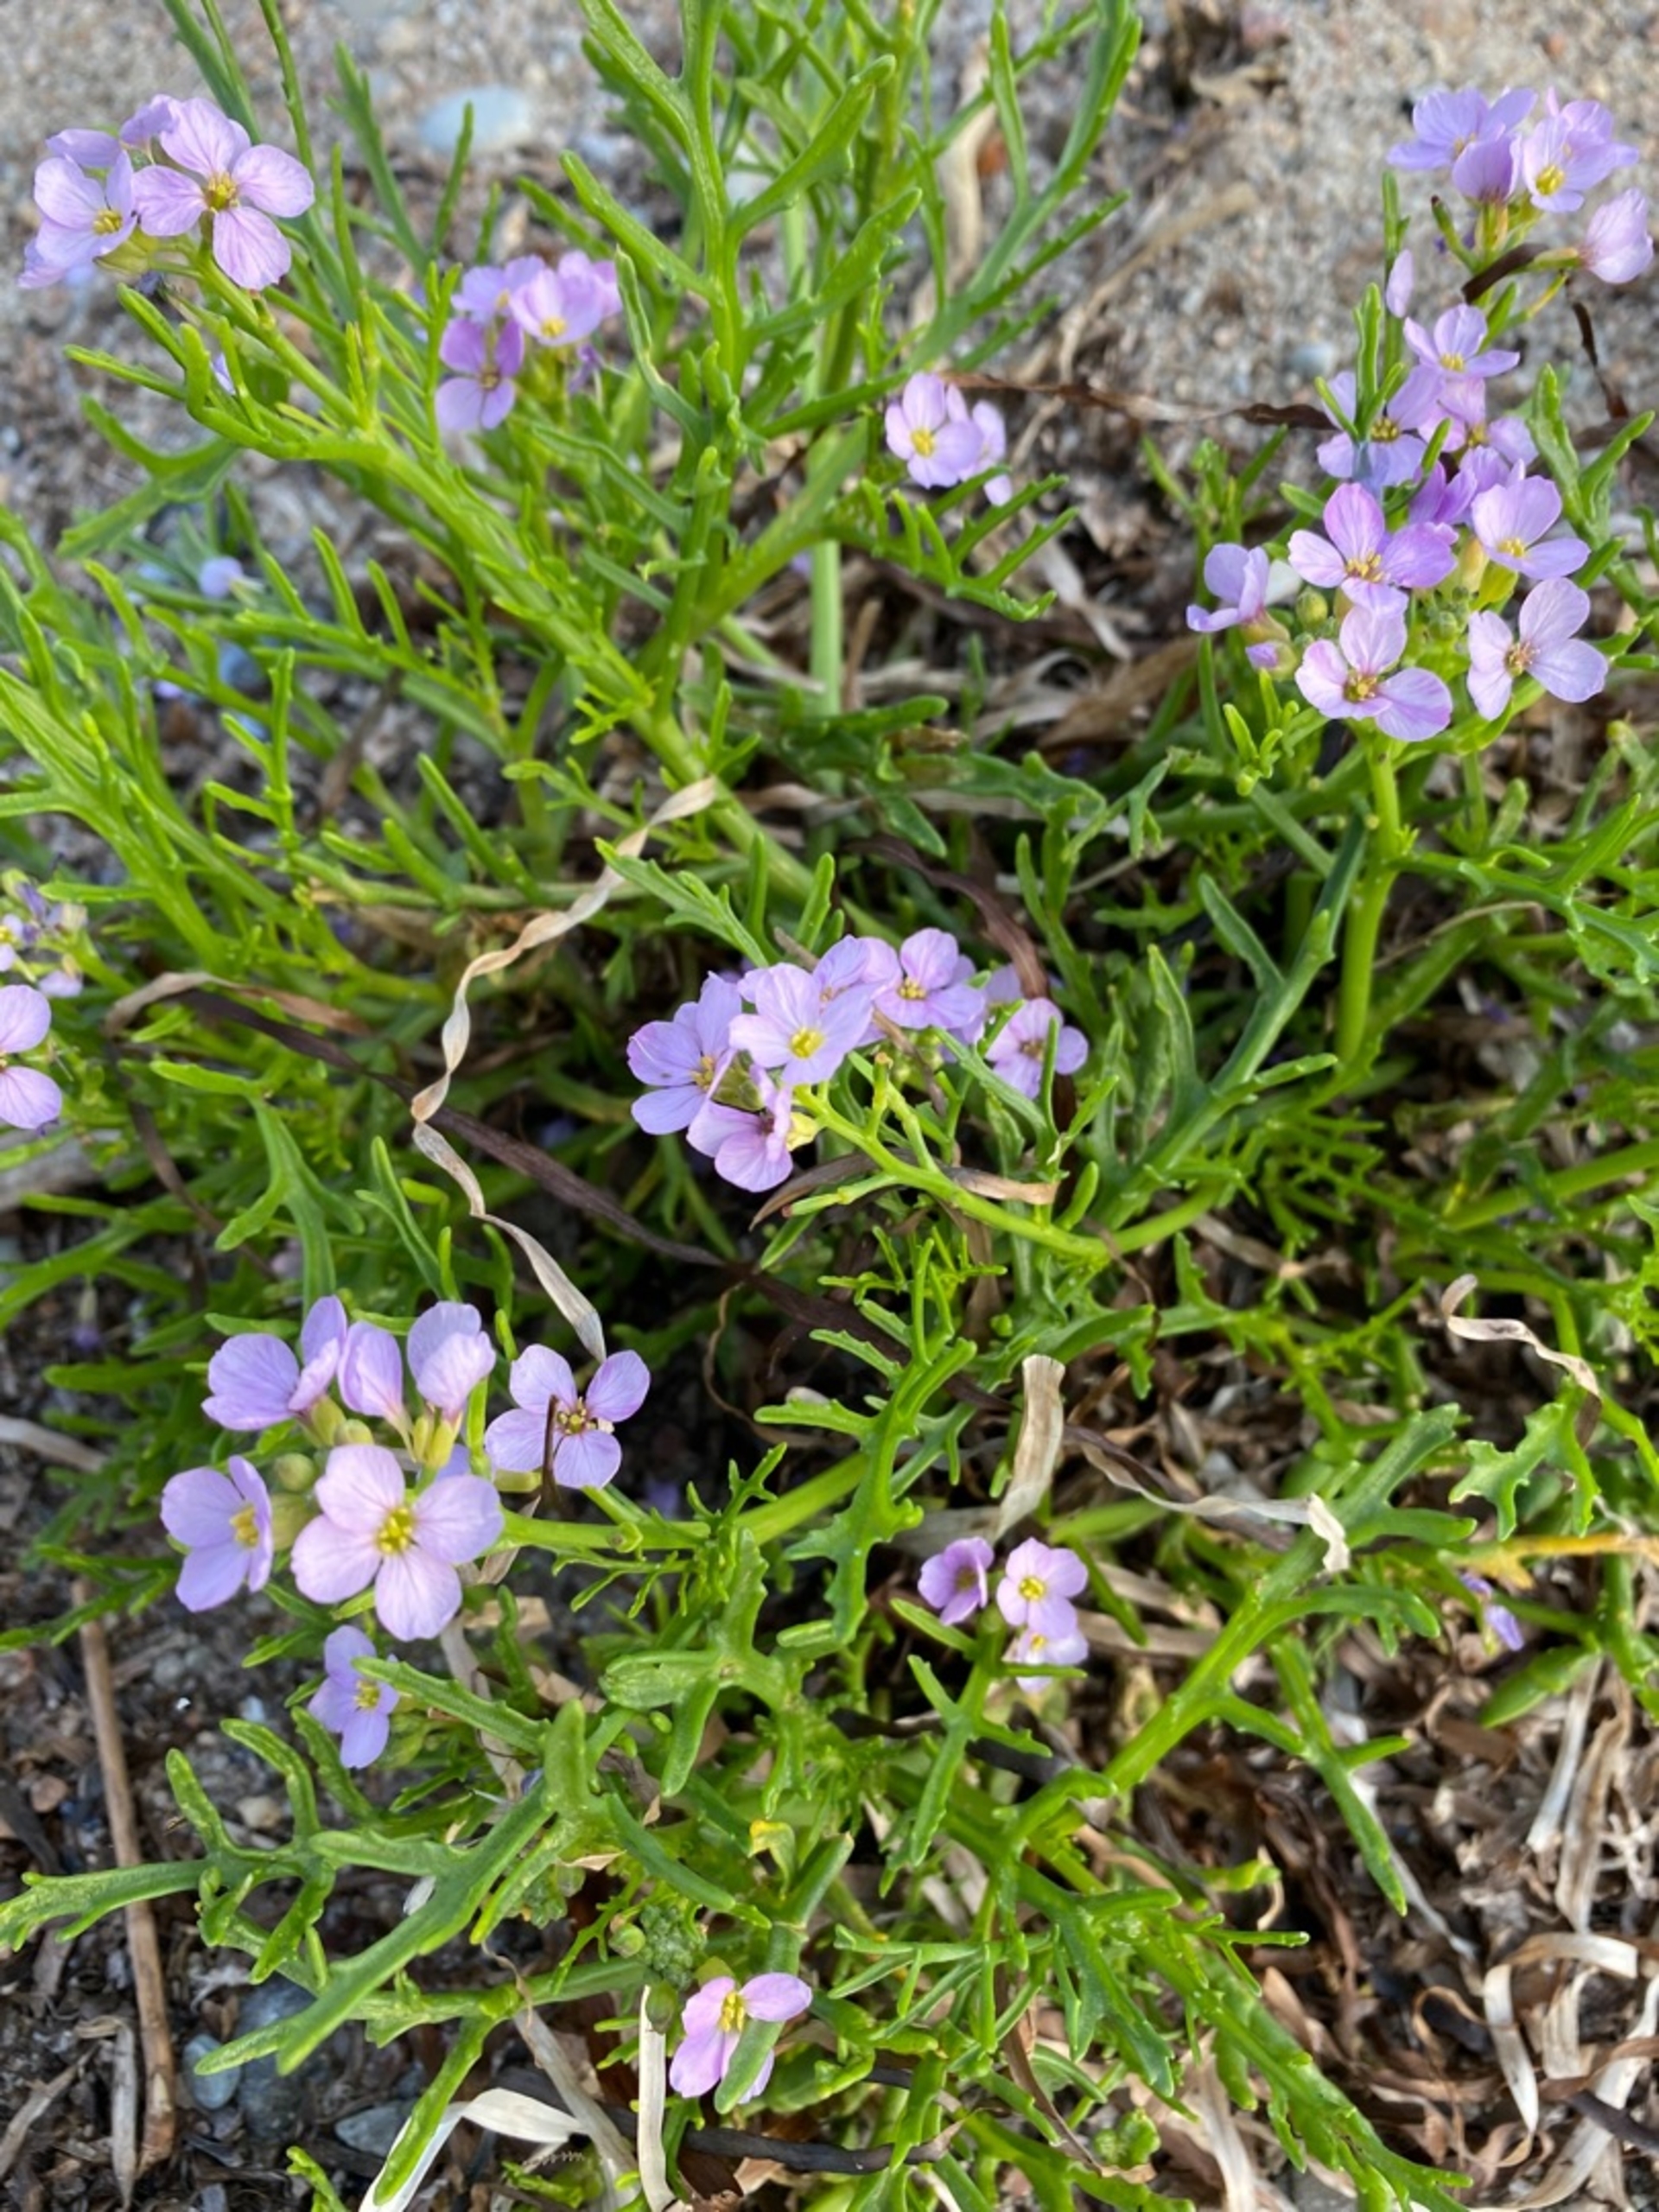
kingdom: Plantae
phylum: Tracheophyta
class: Magnoliopsida
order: Brassicales
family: Brassicaceae
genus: Cakile
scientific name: Cakile maritima
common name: Strandsennep
